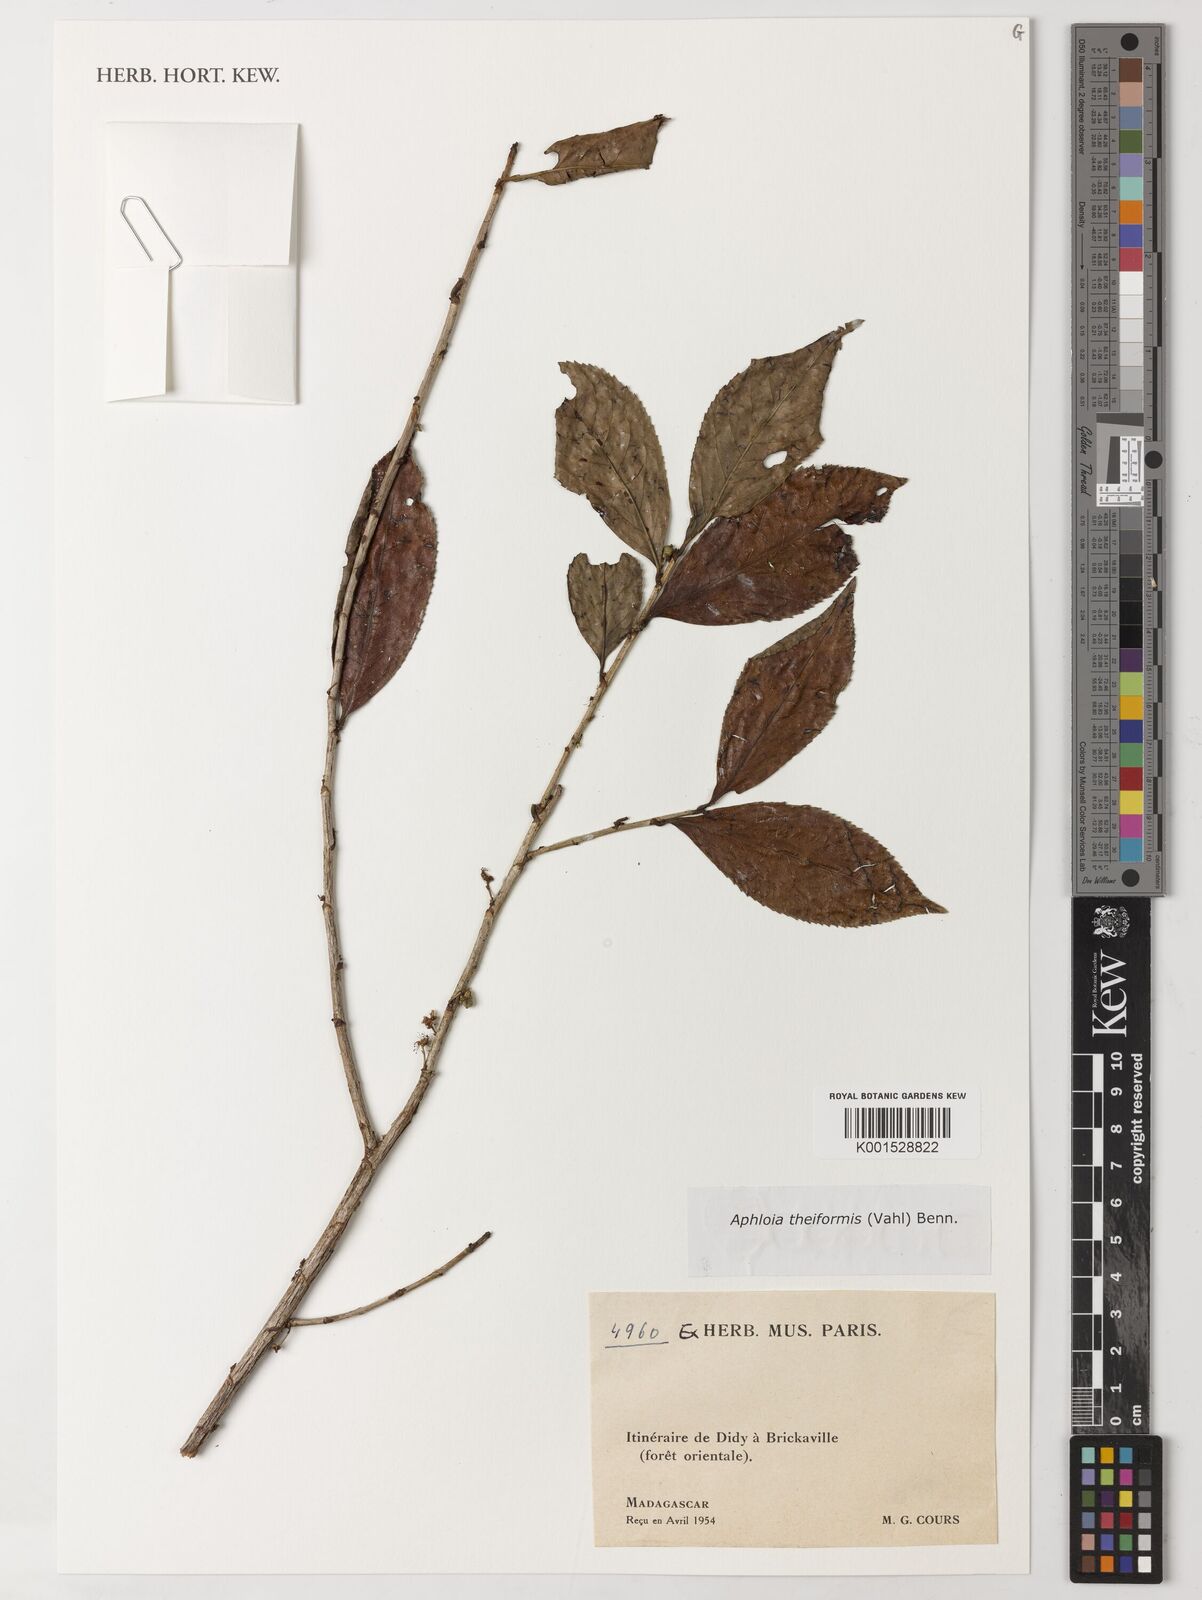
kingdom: Plantae
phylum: Tracheophyta
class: Magnoliopsida
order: Crossosomatales
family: Aphloiaceae
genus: Aphloia
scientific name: Aphloia theiformis
